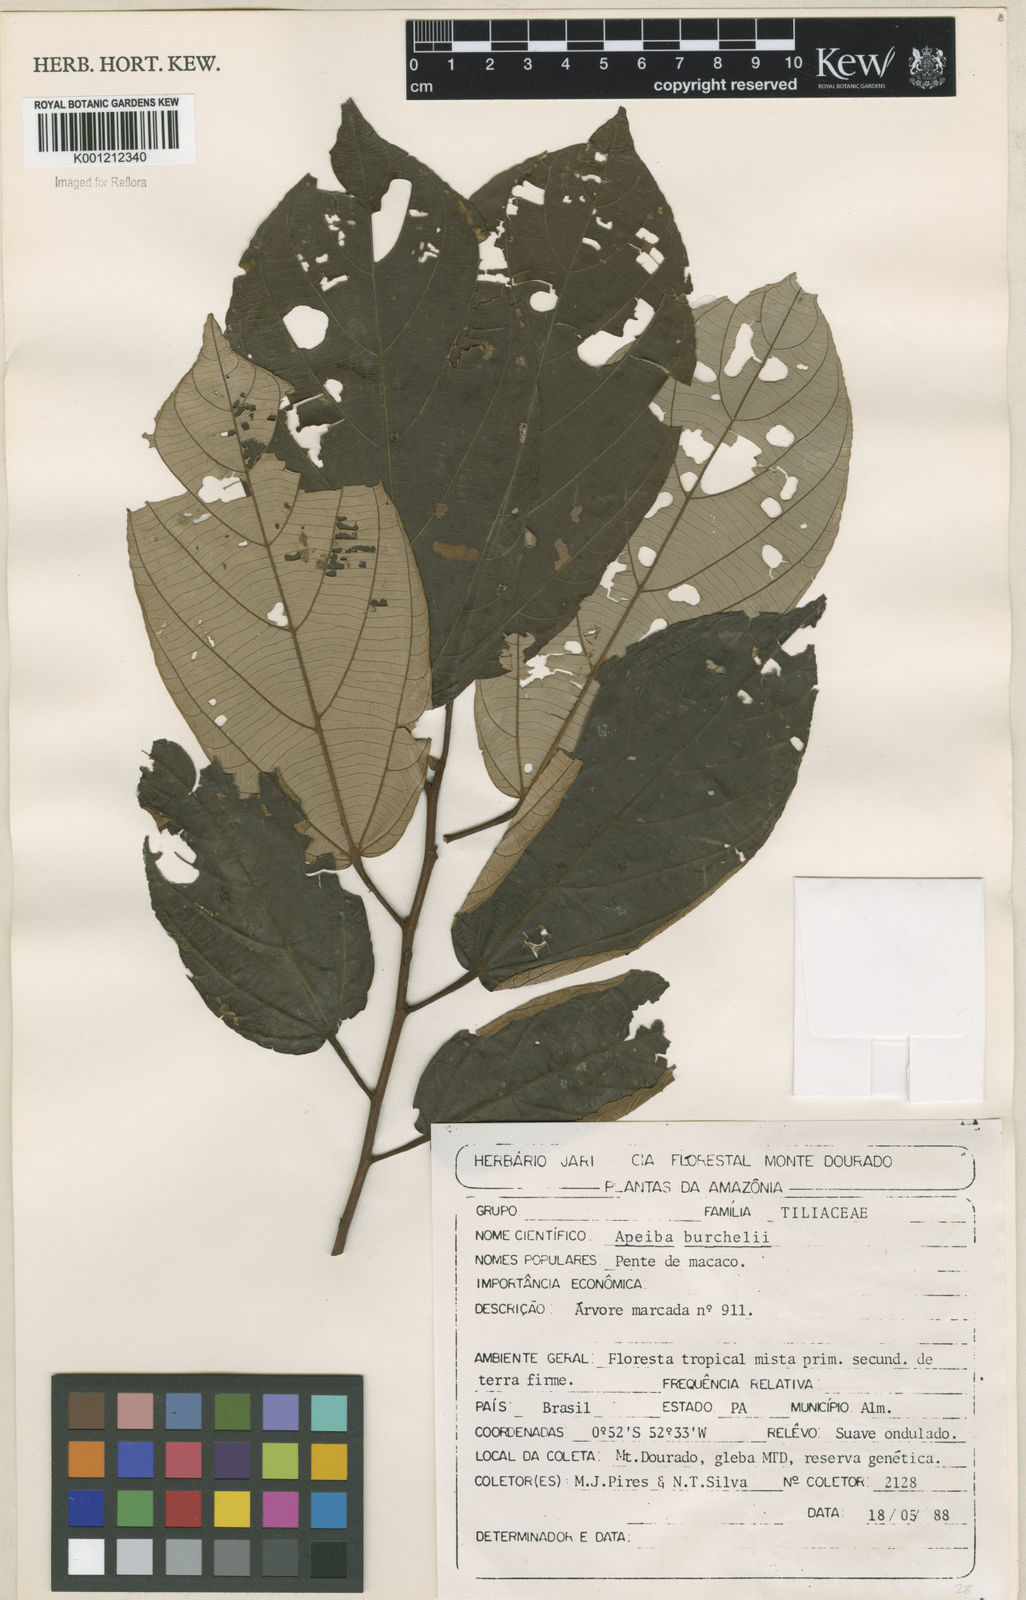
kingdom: Plantae
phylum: Tracheophyta
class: Magnoliopsida
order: Malvales
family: Malvaceae
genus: Apeiba
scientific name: Apeiba glabra
